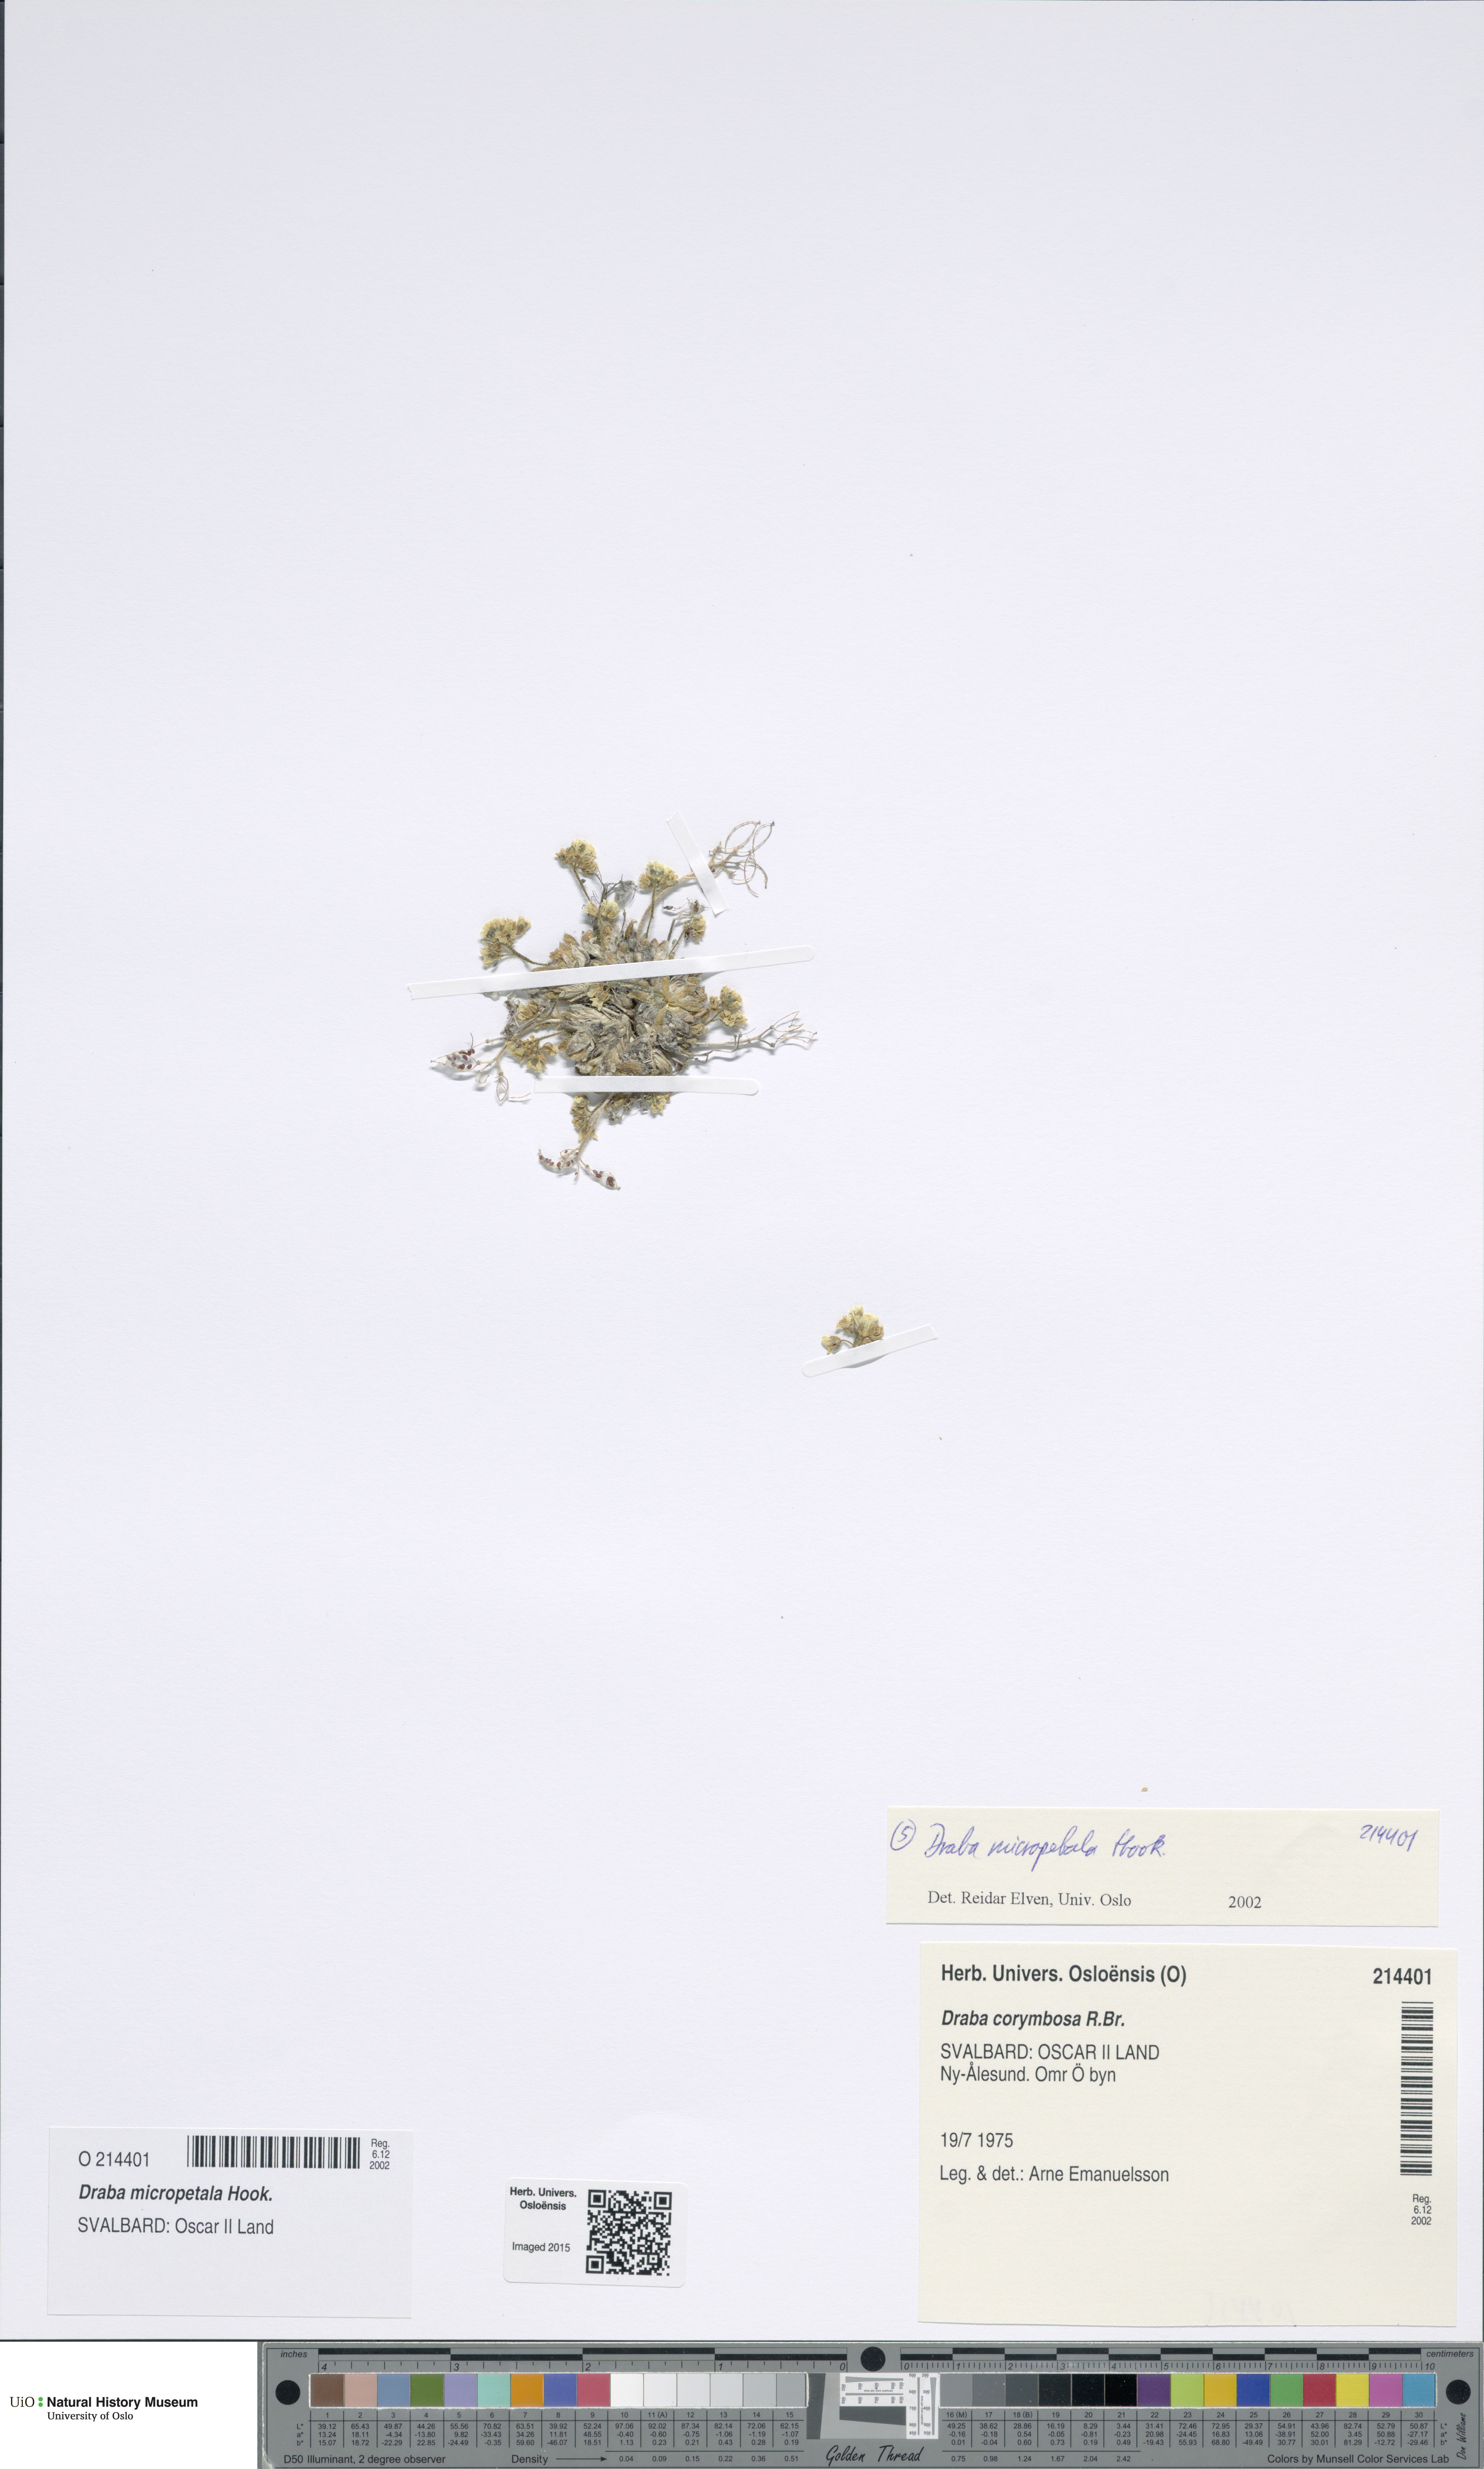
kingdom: Plantae
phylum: Tracheophyta
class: Magnoliopsida
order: Brassicales
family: Brassicaceae
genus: Draba
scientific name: Draba micropetala
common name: Small-flowered draba
